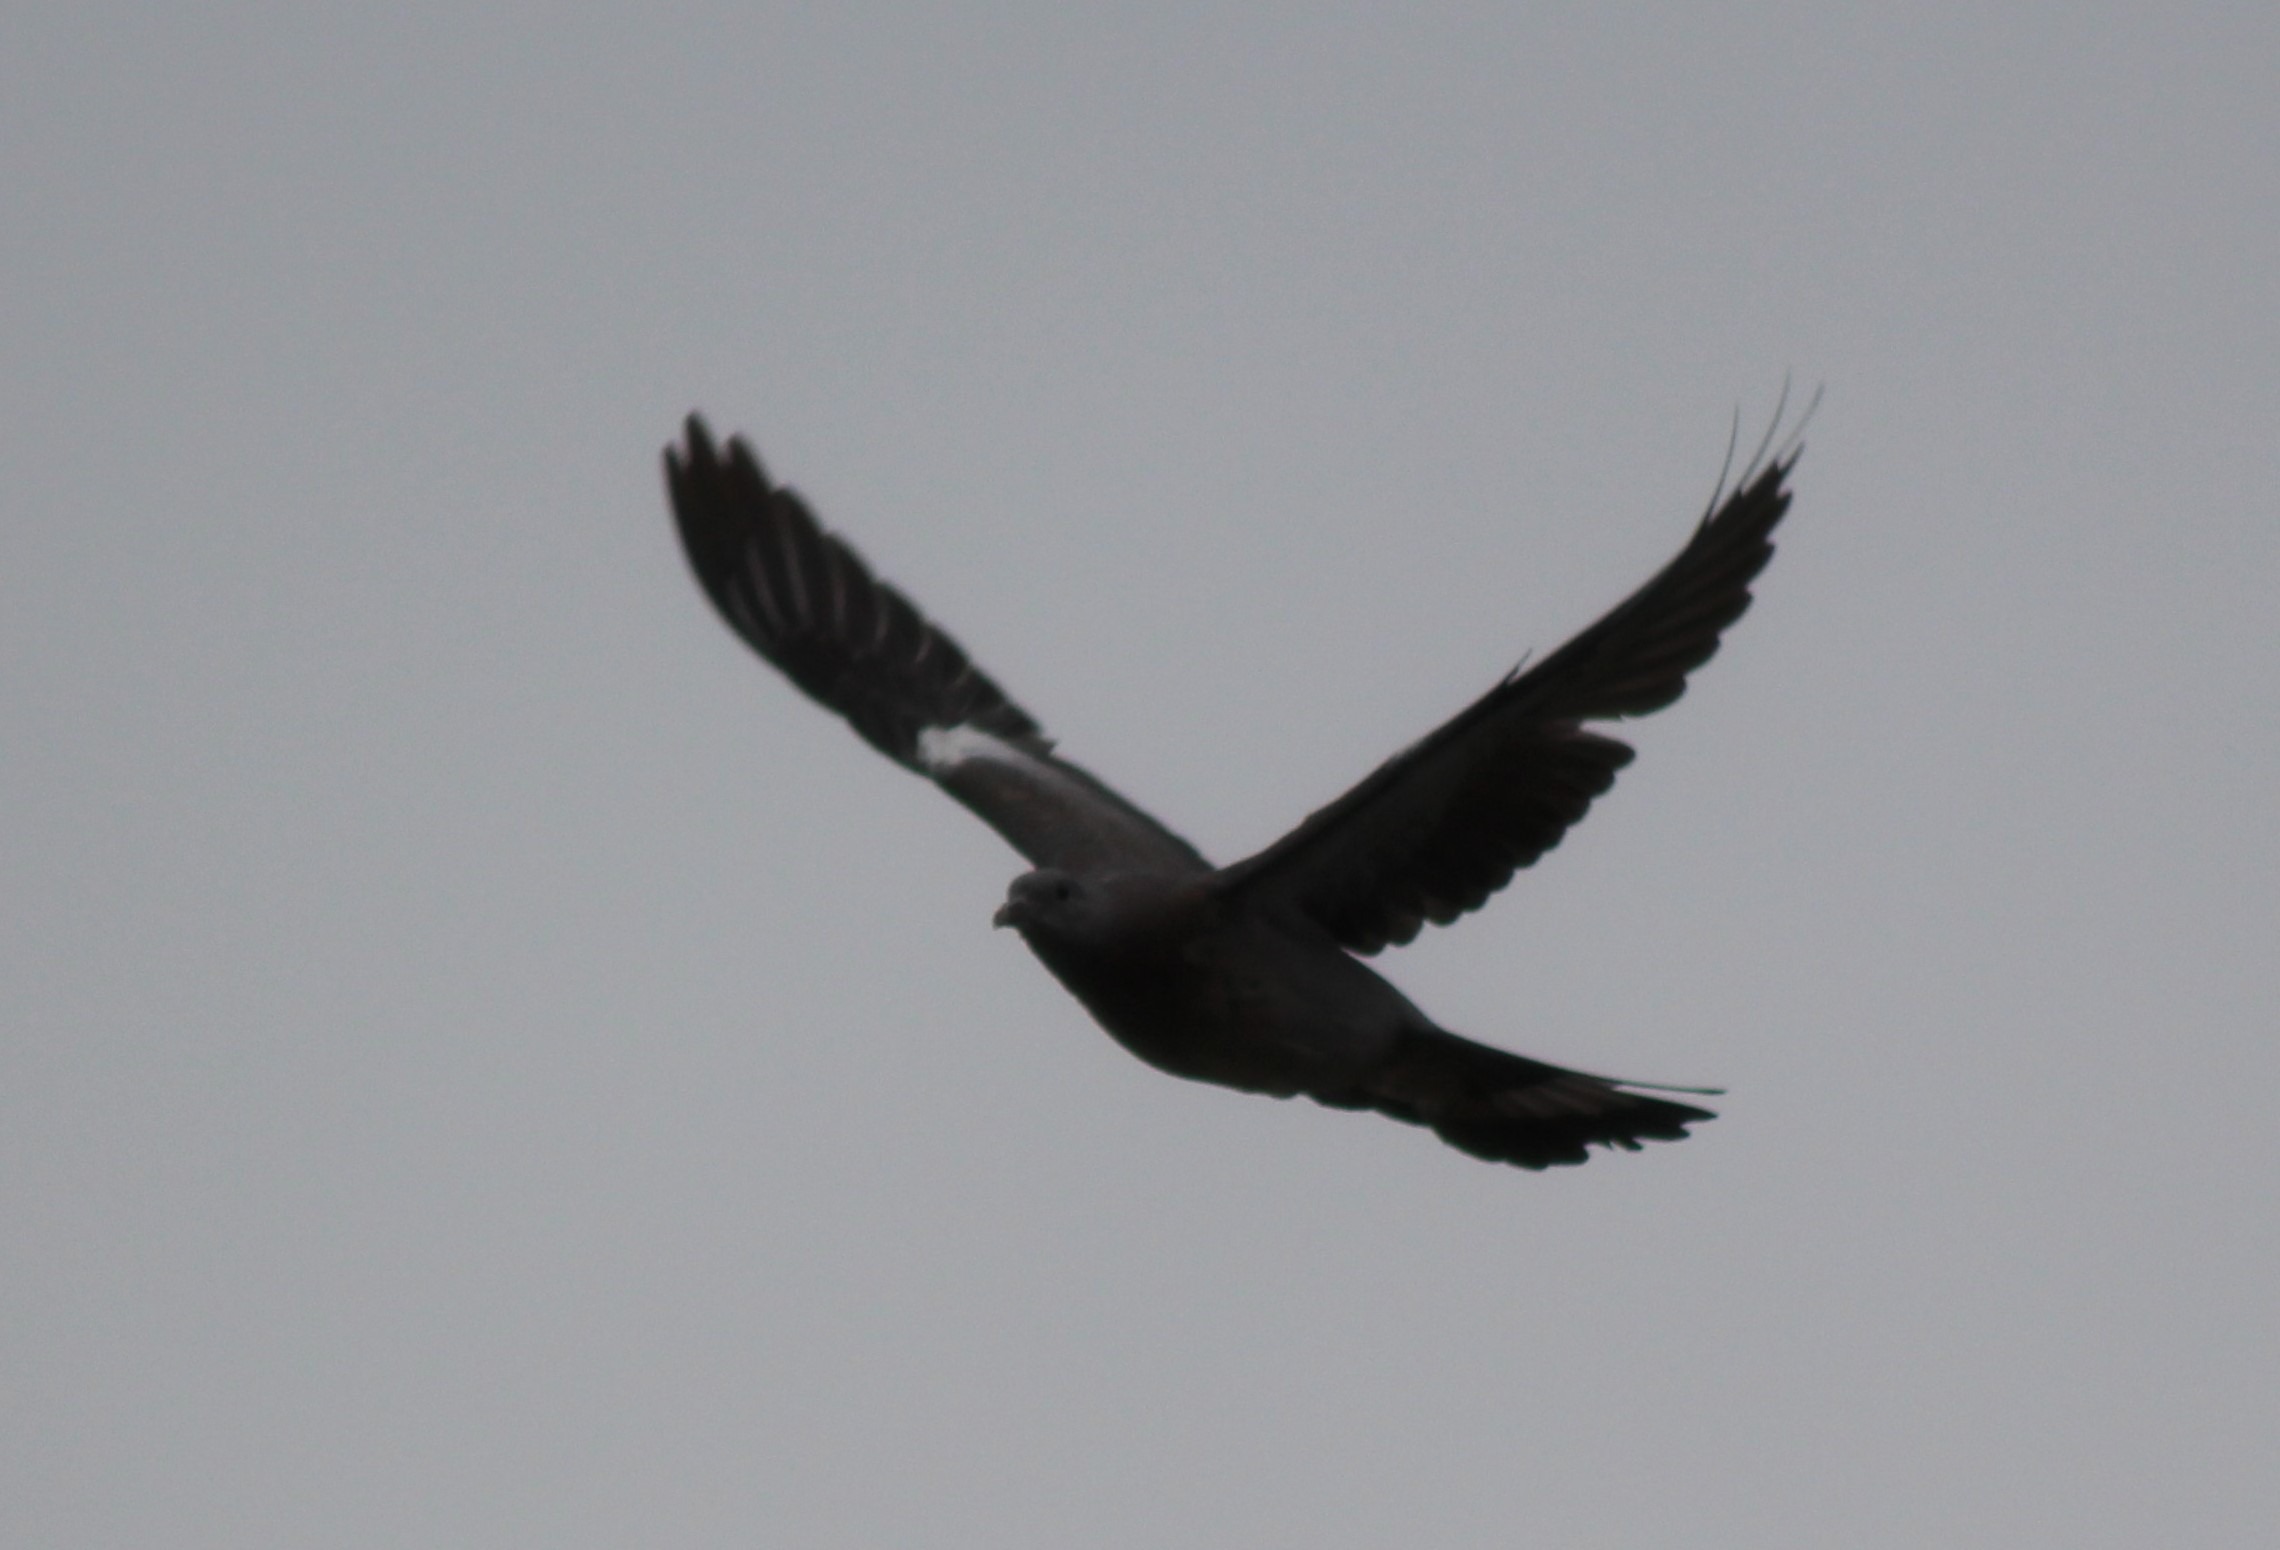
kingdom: Animalia
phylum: Chordata
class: Aves
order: Columbiformes
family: Columbidae
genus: Columba
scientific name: Columba palumbus
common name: Ringdue
